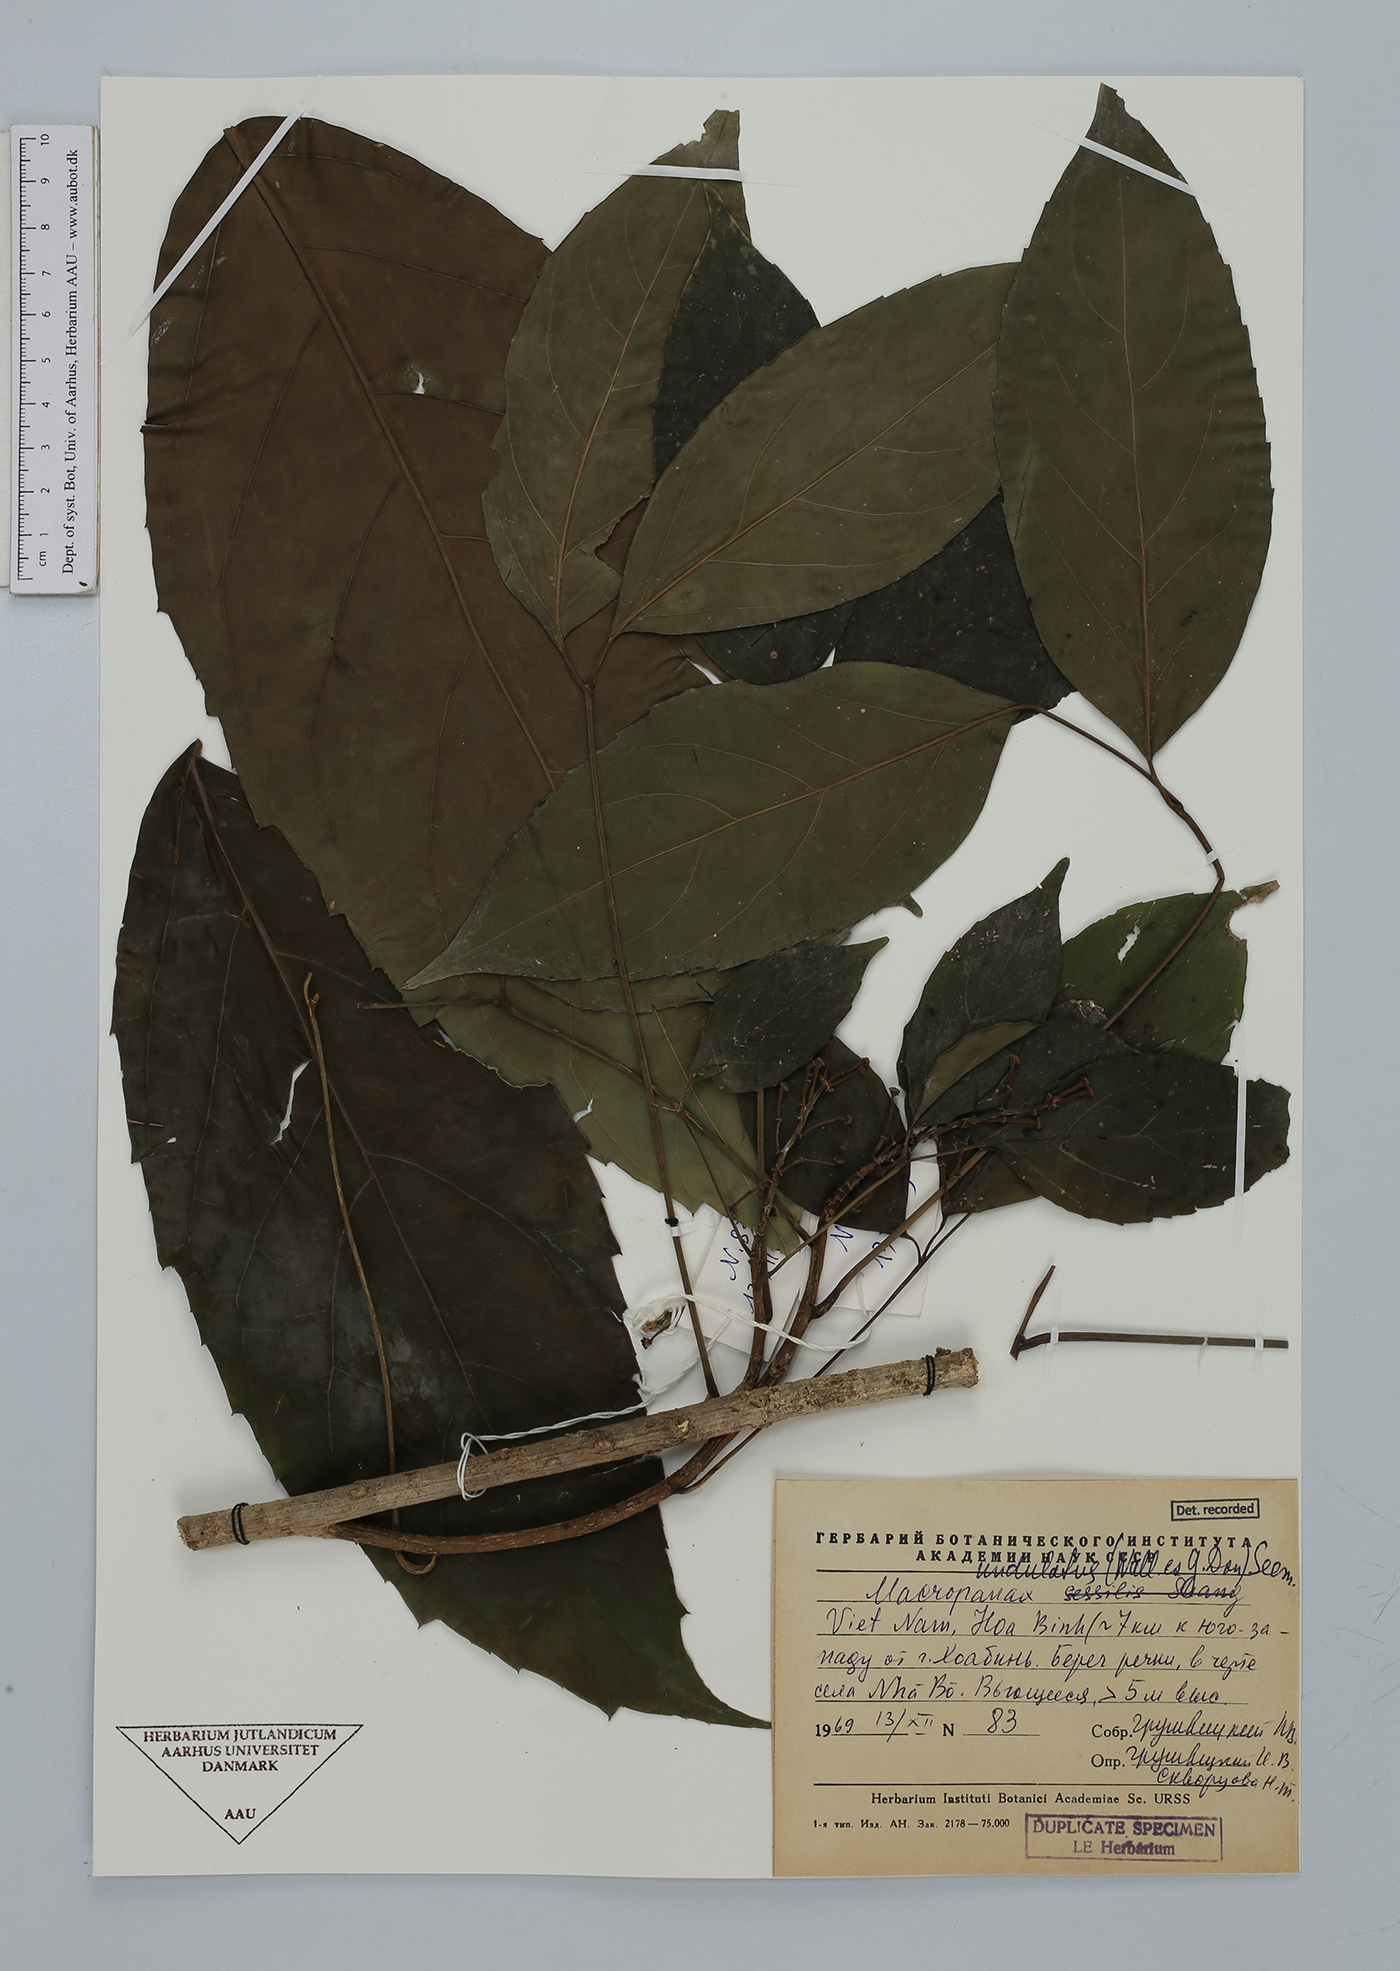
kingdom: Plantae
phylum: Tracheophyta
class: Magnoliopsida
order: Apiales
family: Araliaceae
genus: Macropanax
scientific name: Macropanax undulatus
